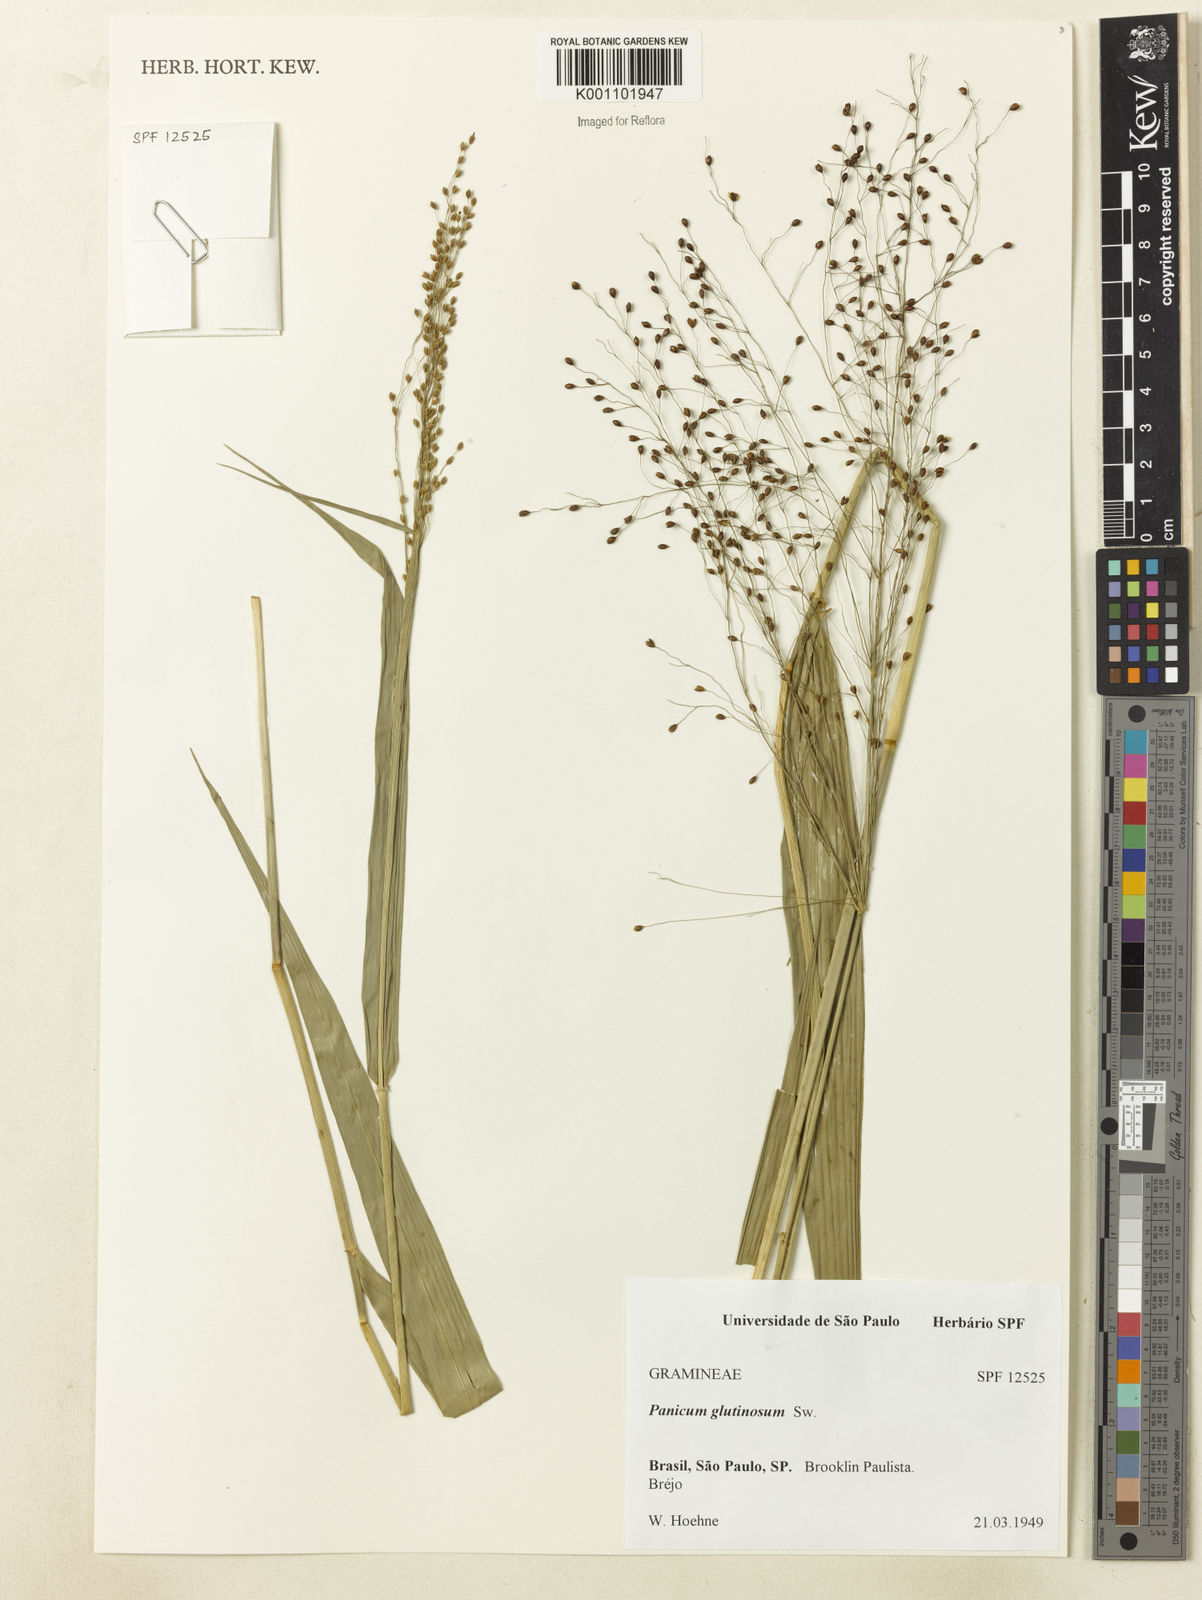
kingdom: Plantae
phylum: Tracheophyta
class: Liliopsida
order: Poales
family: Poaceae
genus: Homolepis
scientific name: Homolepis glutinosa
